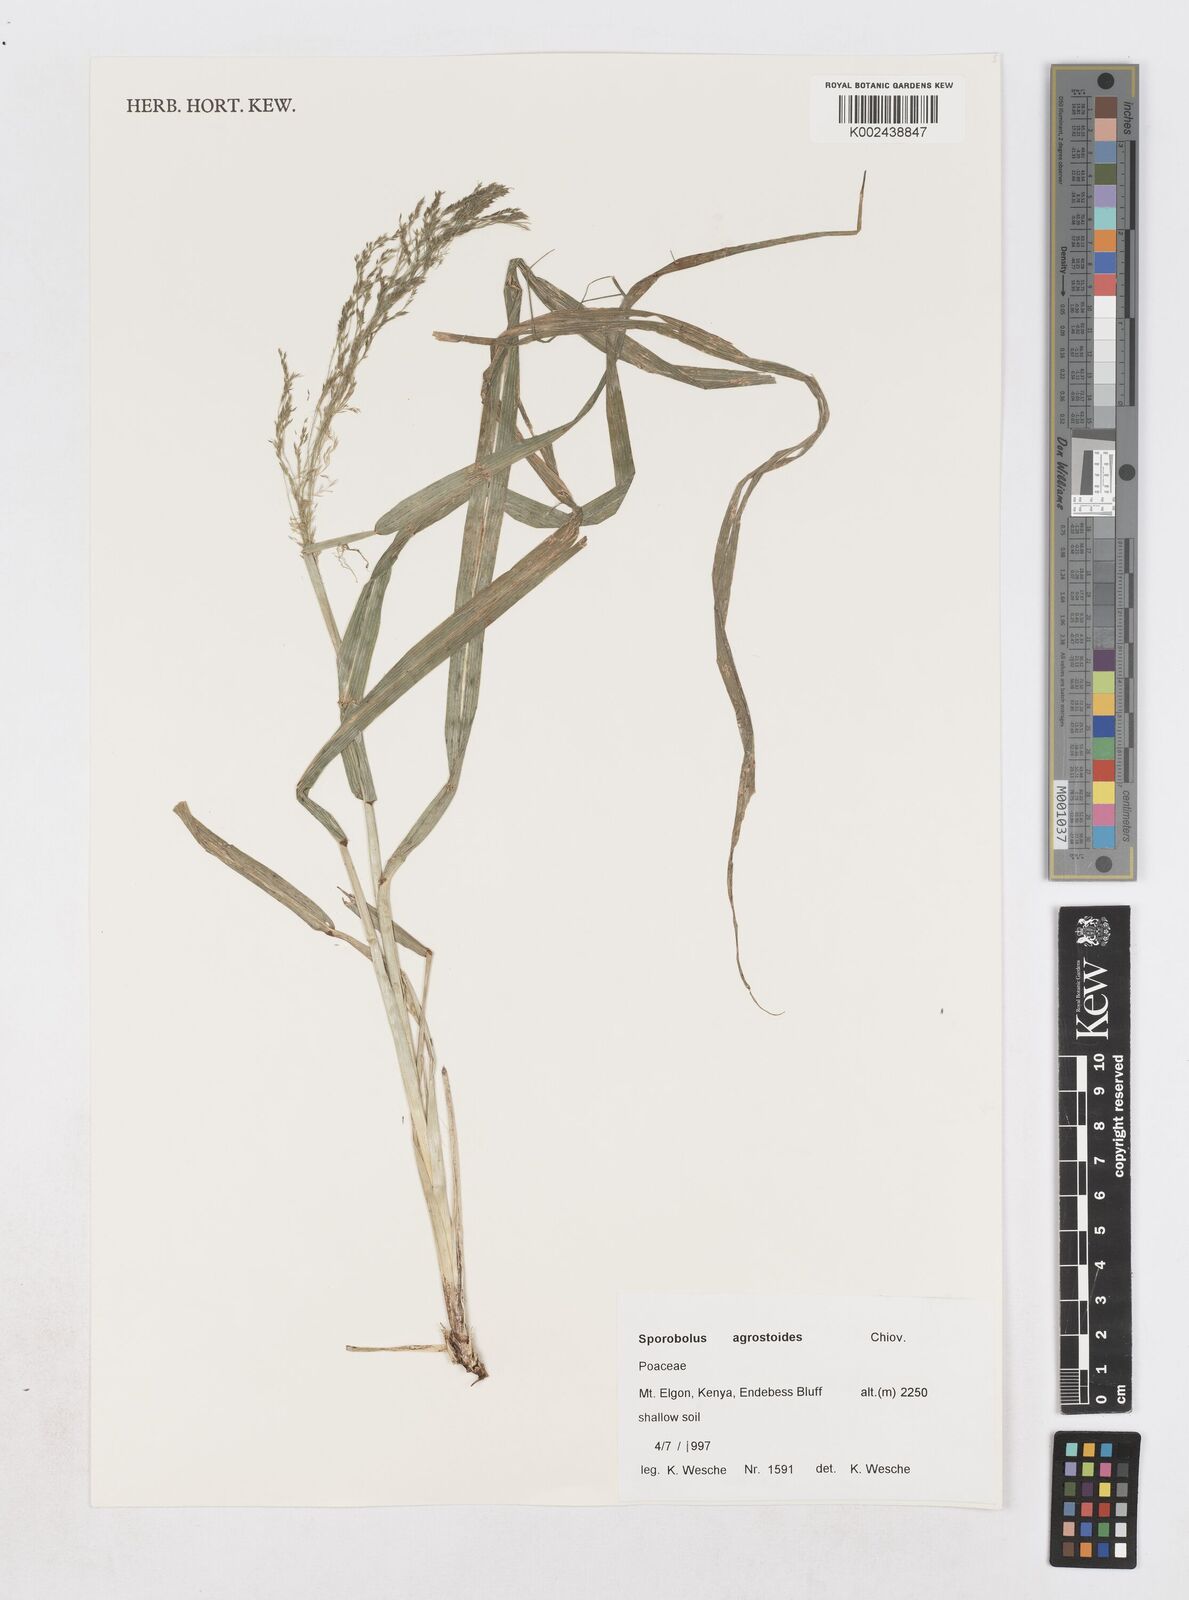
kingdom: Plantae
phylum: Tracheophyta
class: Liliopsida
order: Poales
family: Poaceae
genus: Sporobolus
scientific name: Sporobolus agrostoides
